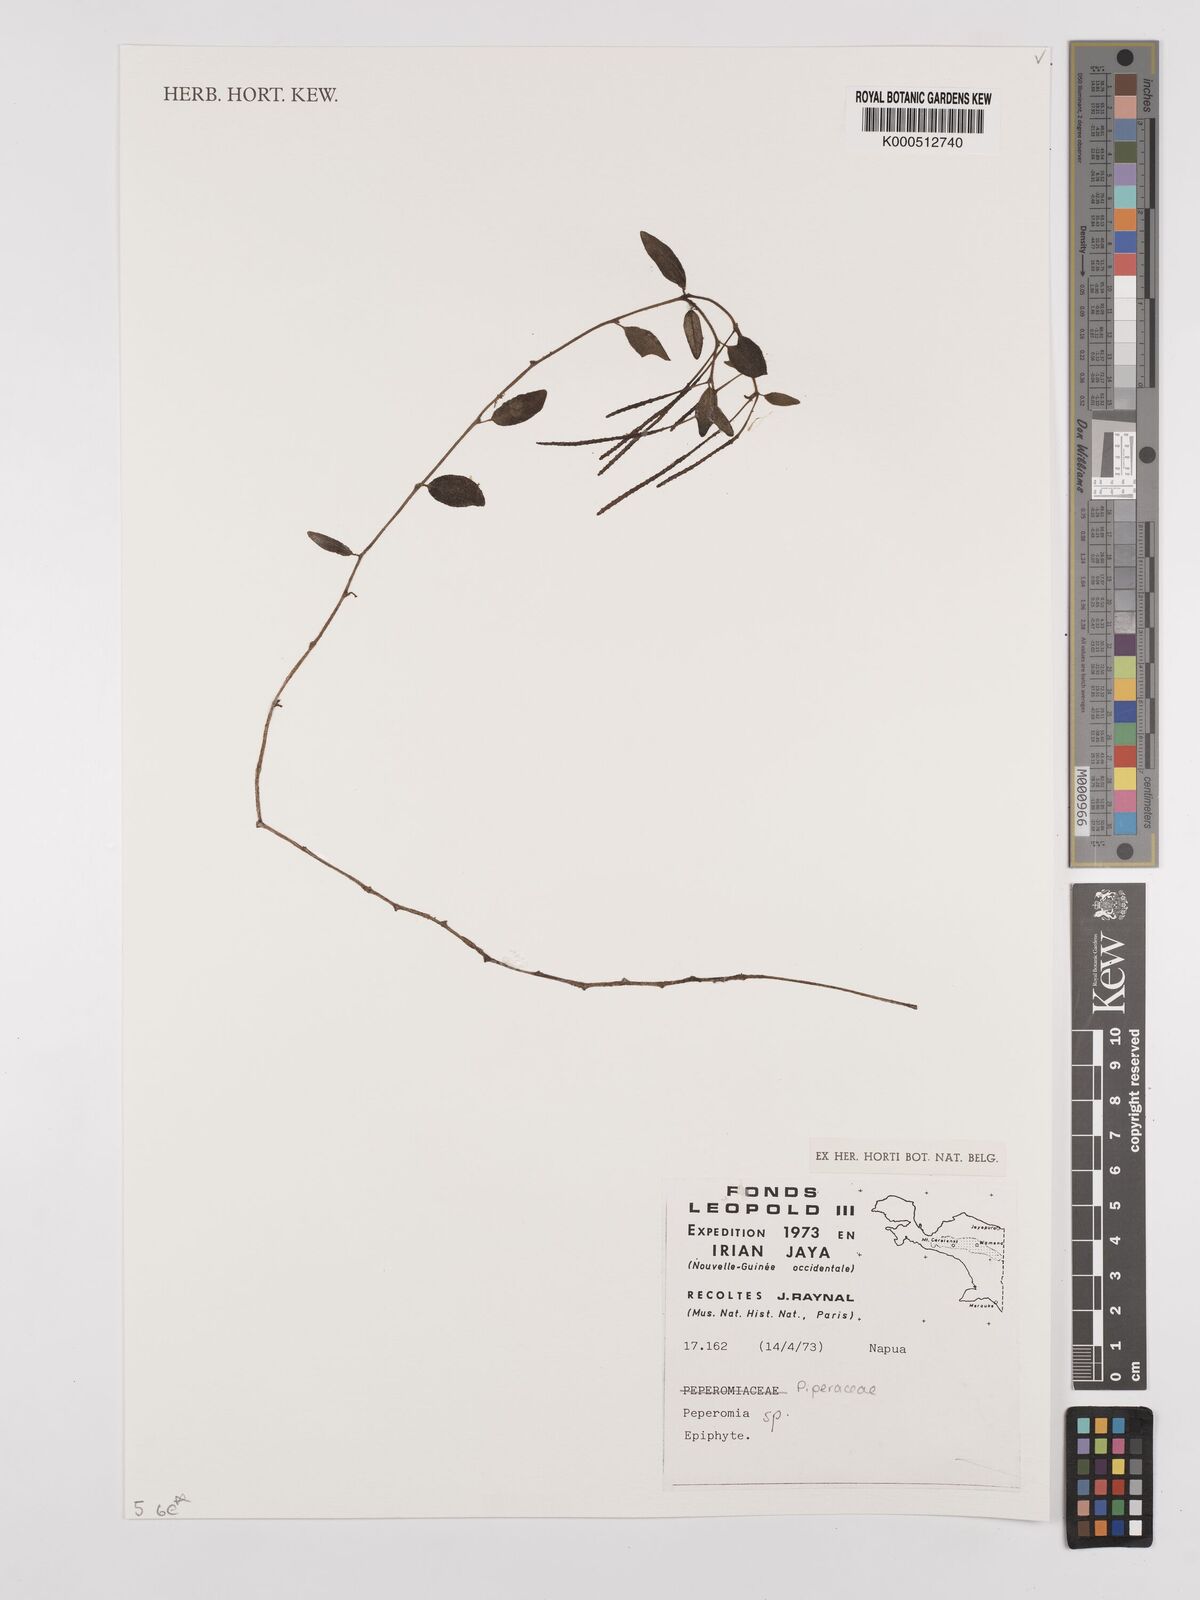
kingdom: Plantae
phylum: Tracheophyta
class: Magnoliopsida
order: Piperales
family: Piperaceae
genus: Peperomia
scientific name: Peperomia
